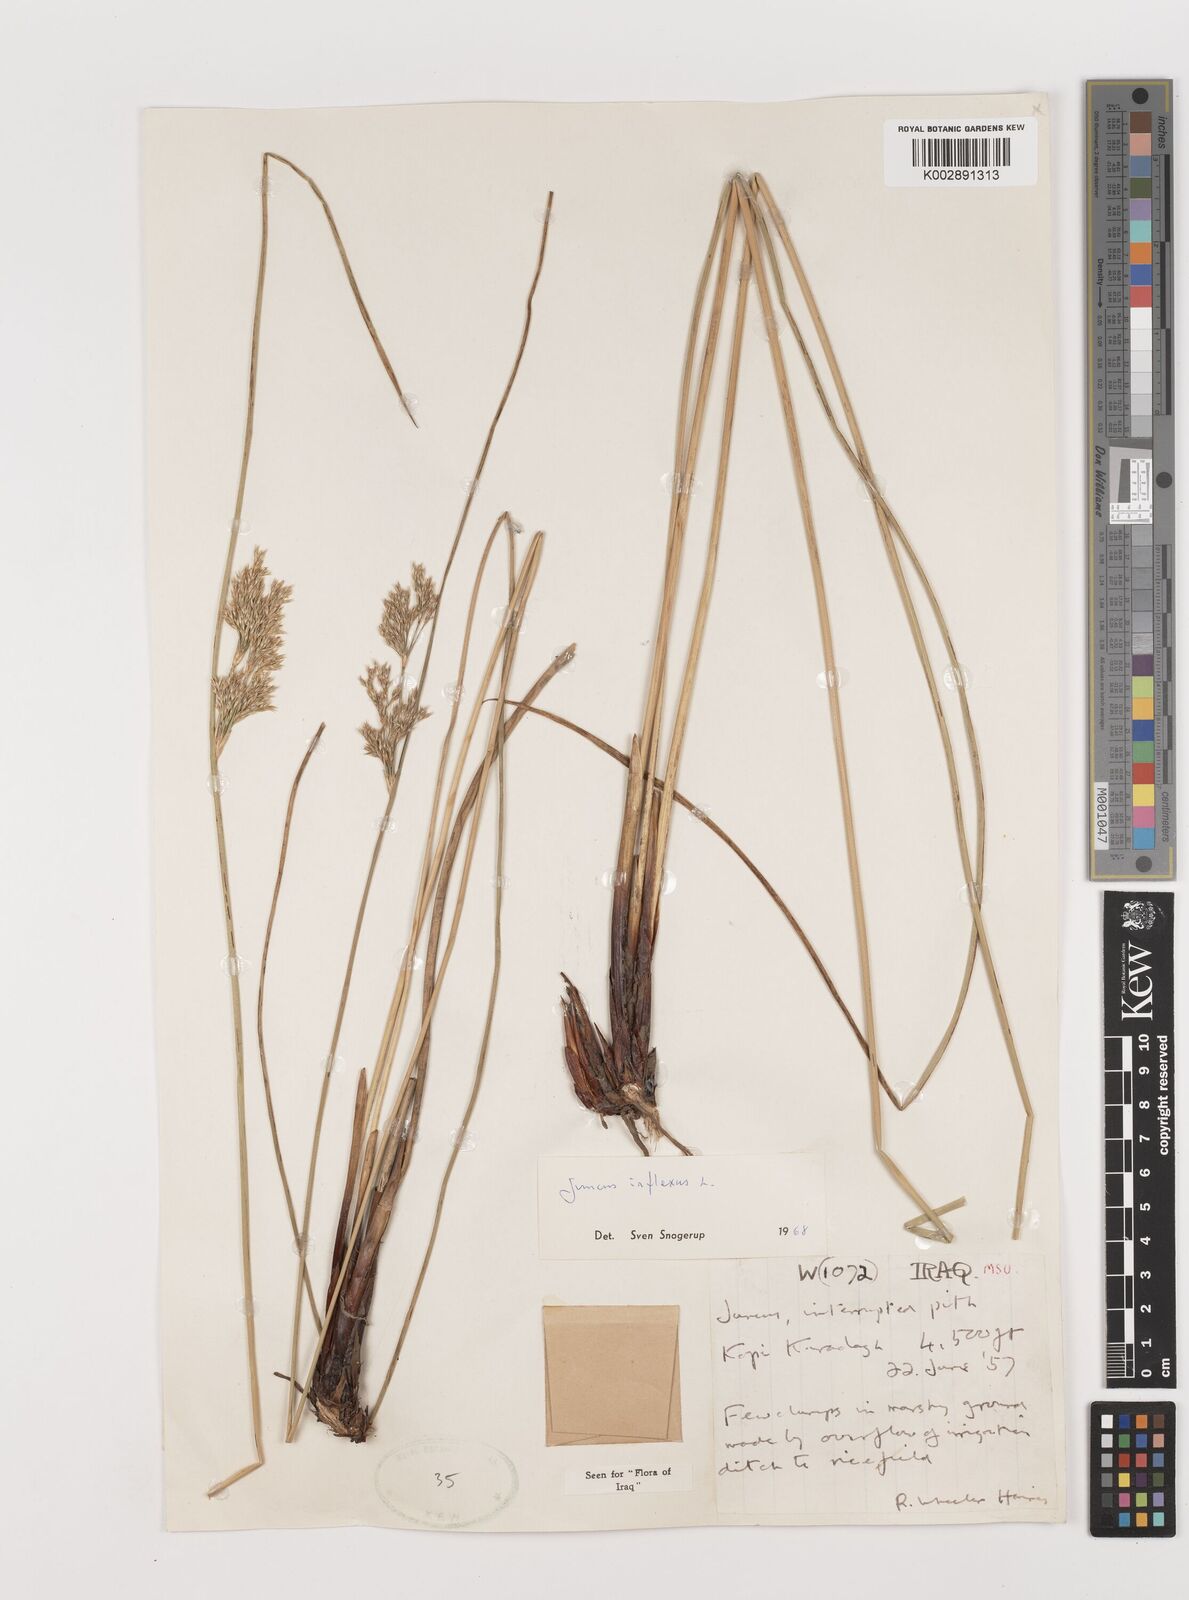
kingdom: Plantae
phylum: Tracheophyta
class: Liliopsida
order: Poales
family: Juncaceae
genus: Juncus
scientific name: Juncus inflexus
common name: Hard rush
